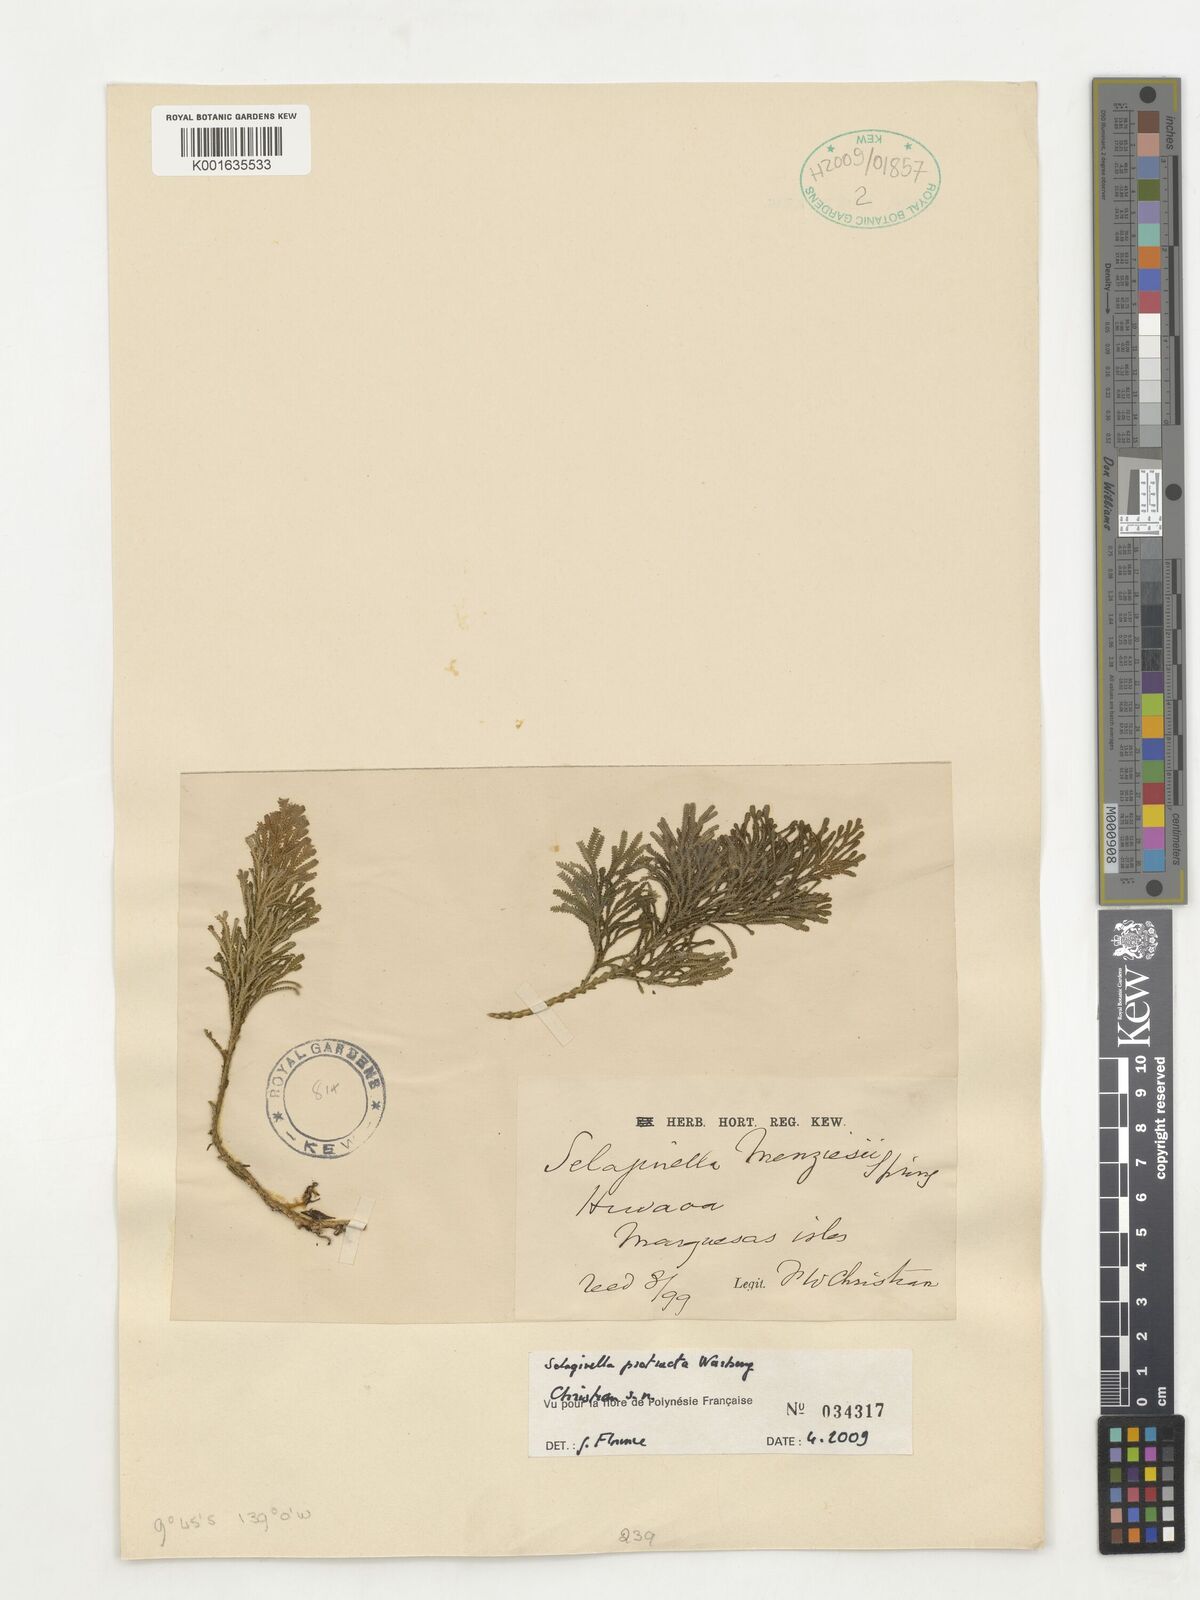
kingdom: Plantae
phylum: Tracheophyta
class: Lycopodiopsida
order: Selaginellales
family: Selaginellaceae
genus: Selaginella
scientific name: Selaginella arbuscula
